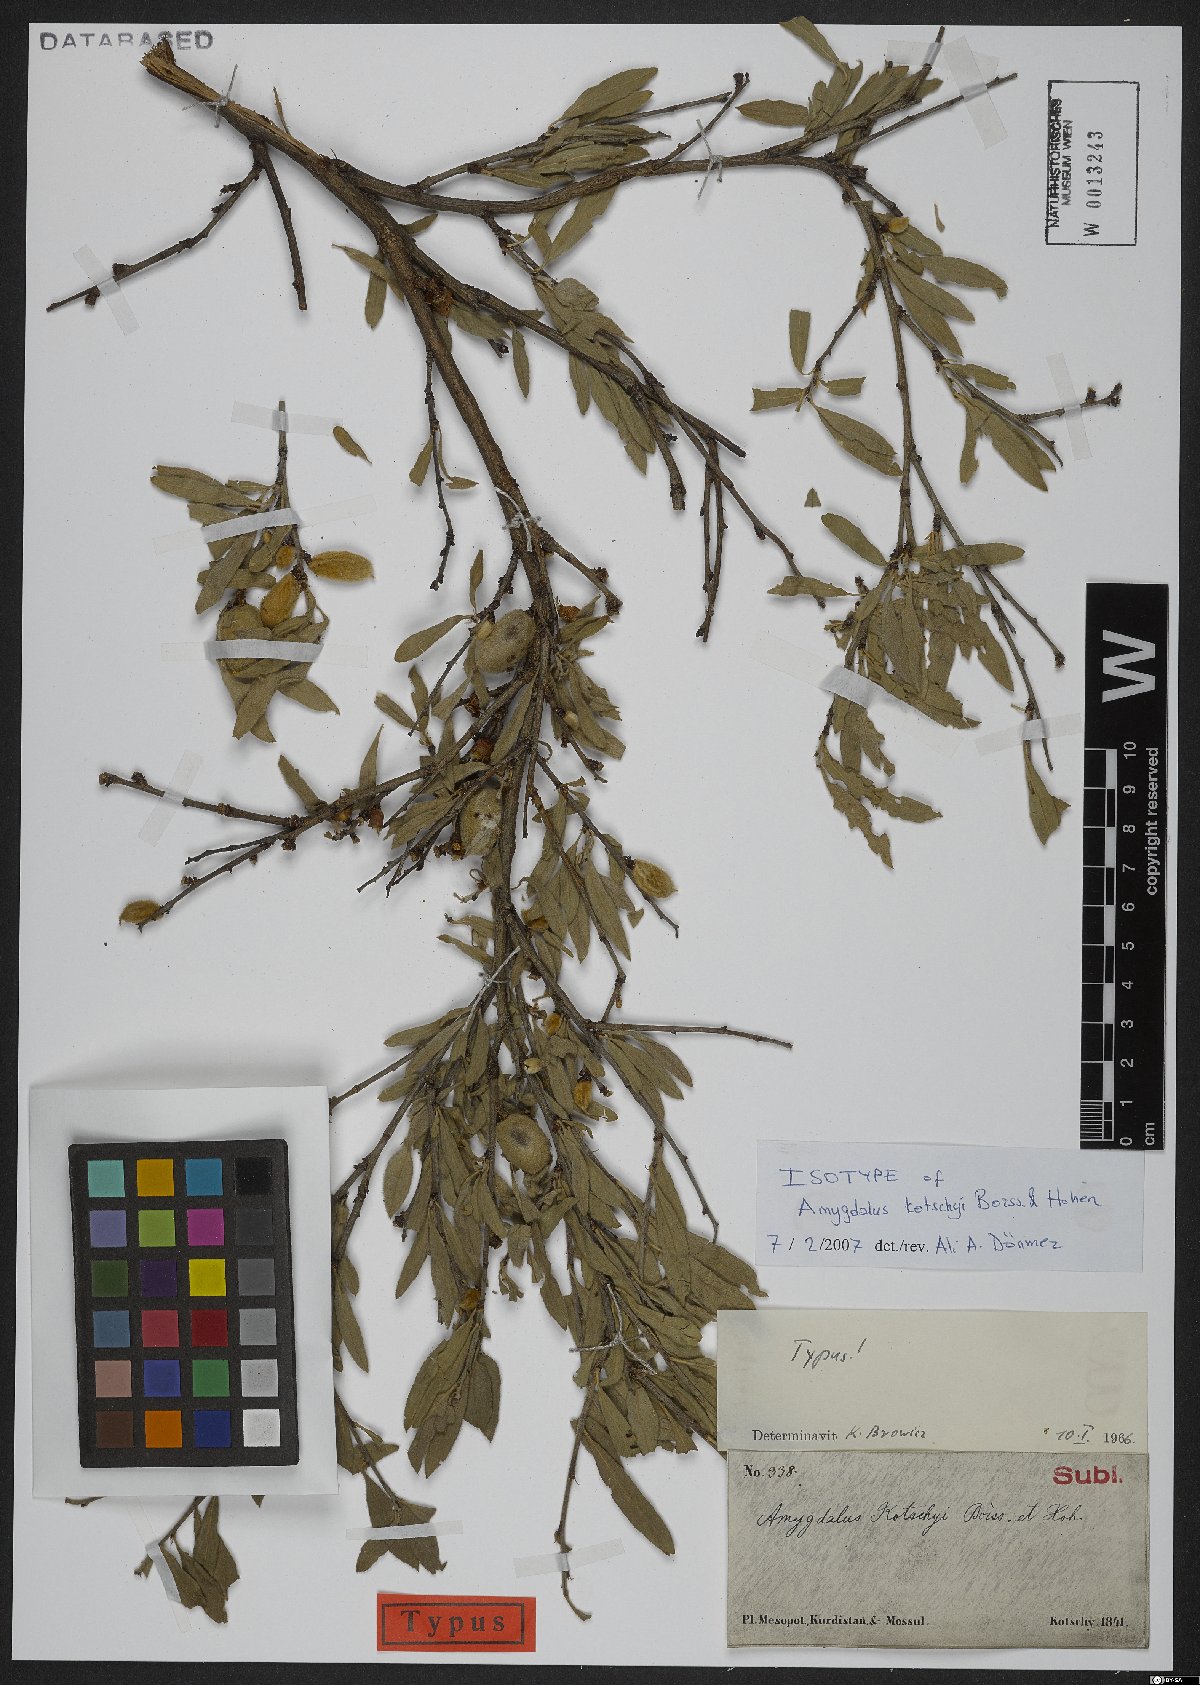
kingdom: Plantae
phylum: Tracheophyta
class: Magnoliopsida
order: Rosales
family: Rosaceae
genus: Prunus
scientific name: Prunus kotschyi
